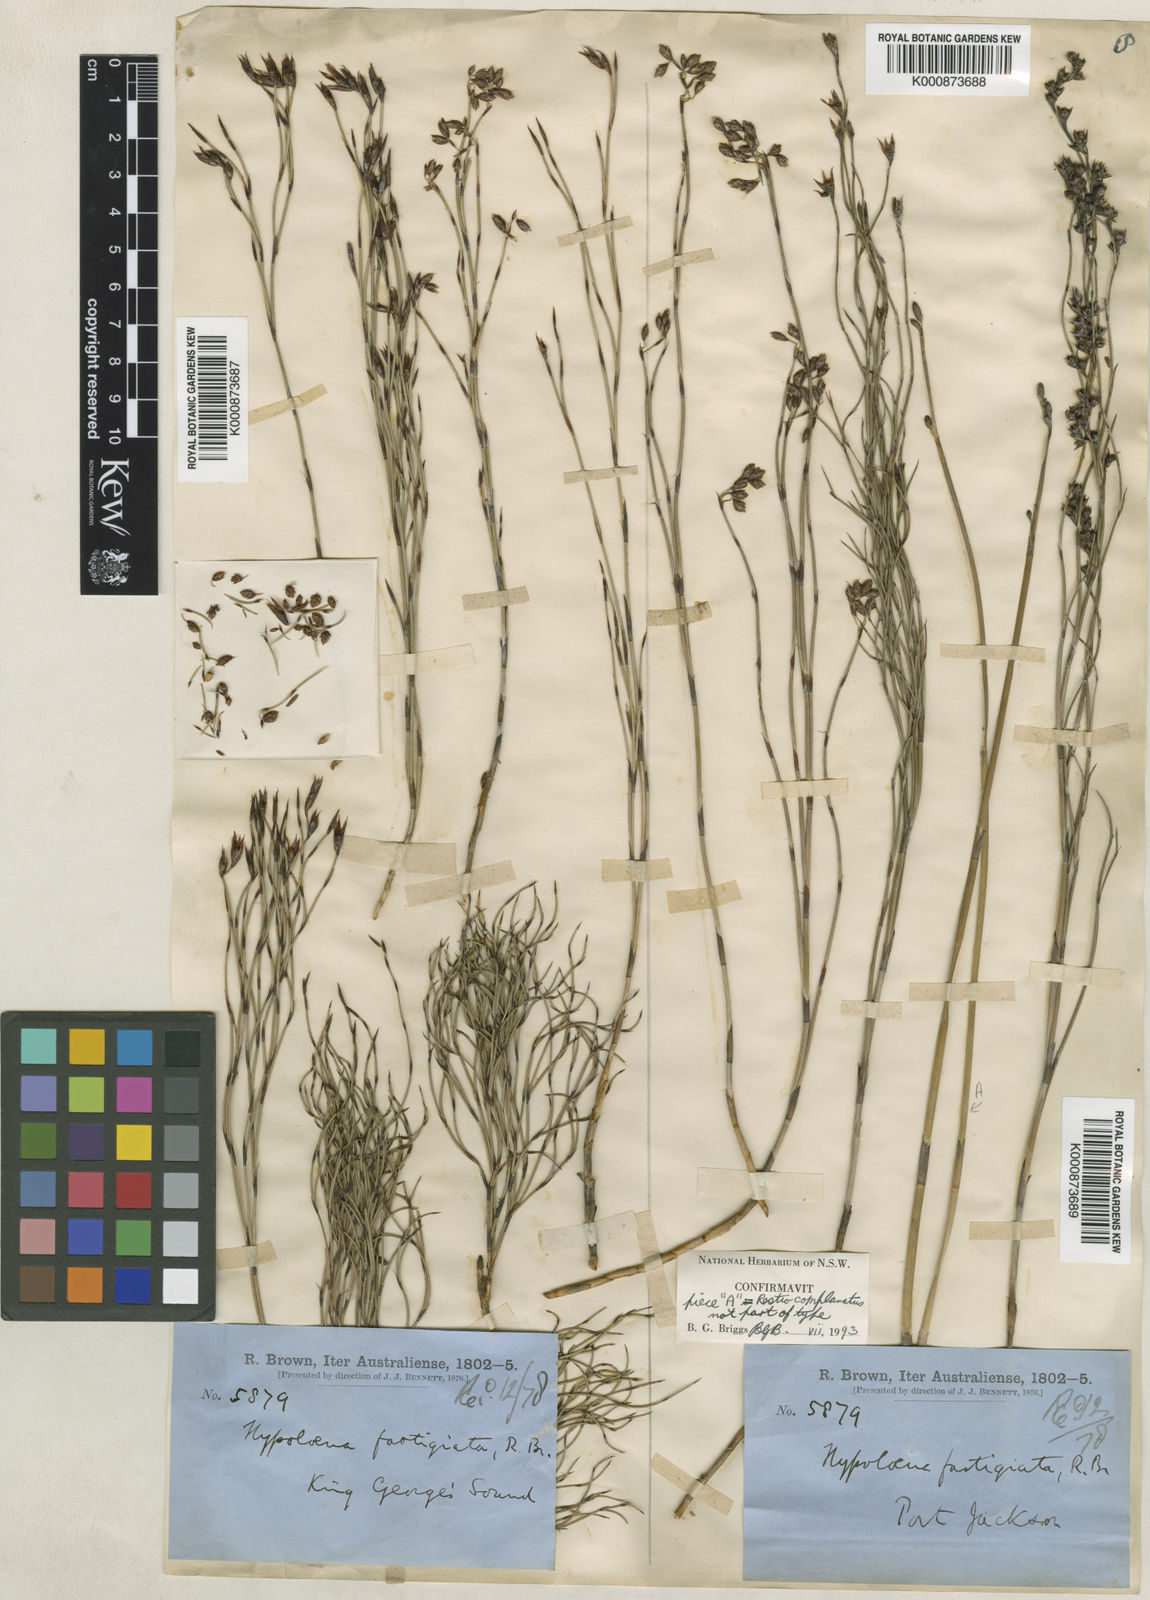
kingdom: Plantae
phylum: Tracheophyta
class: Liliopsida
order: Poales
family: Restionaceae
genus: Hypolaena
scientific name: Hypolaena fastigiata
